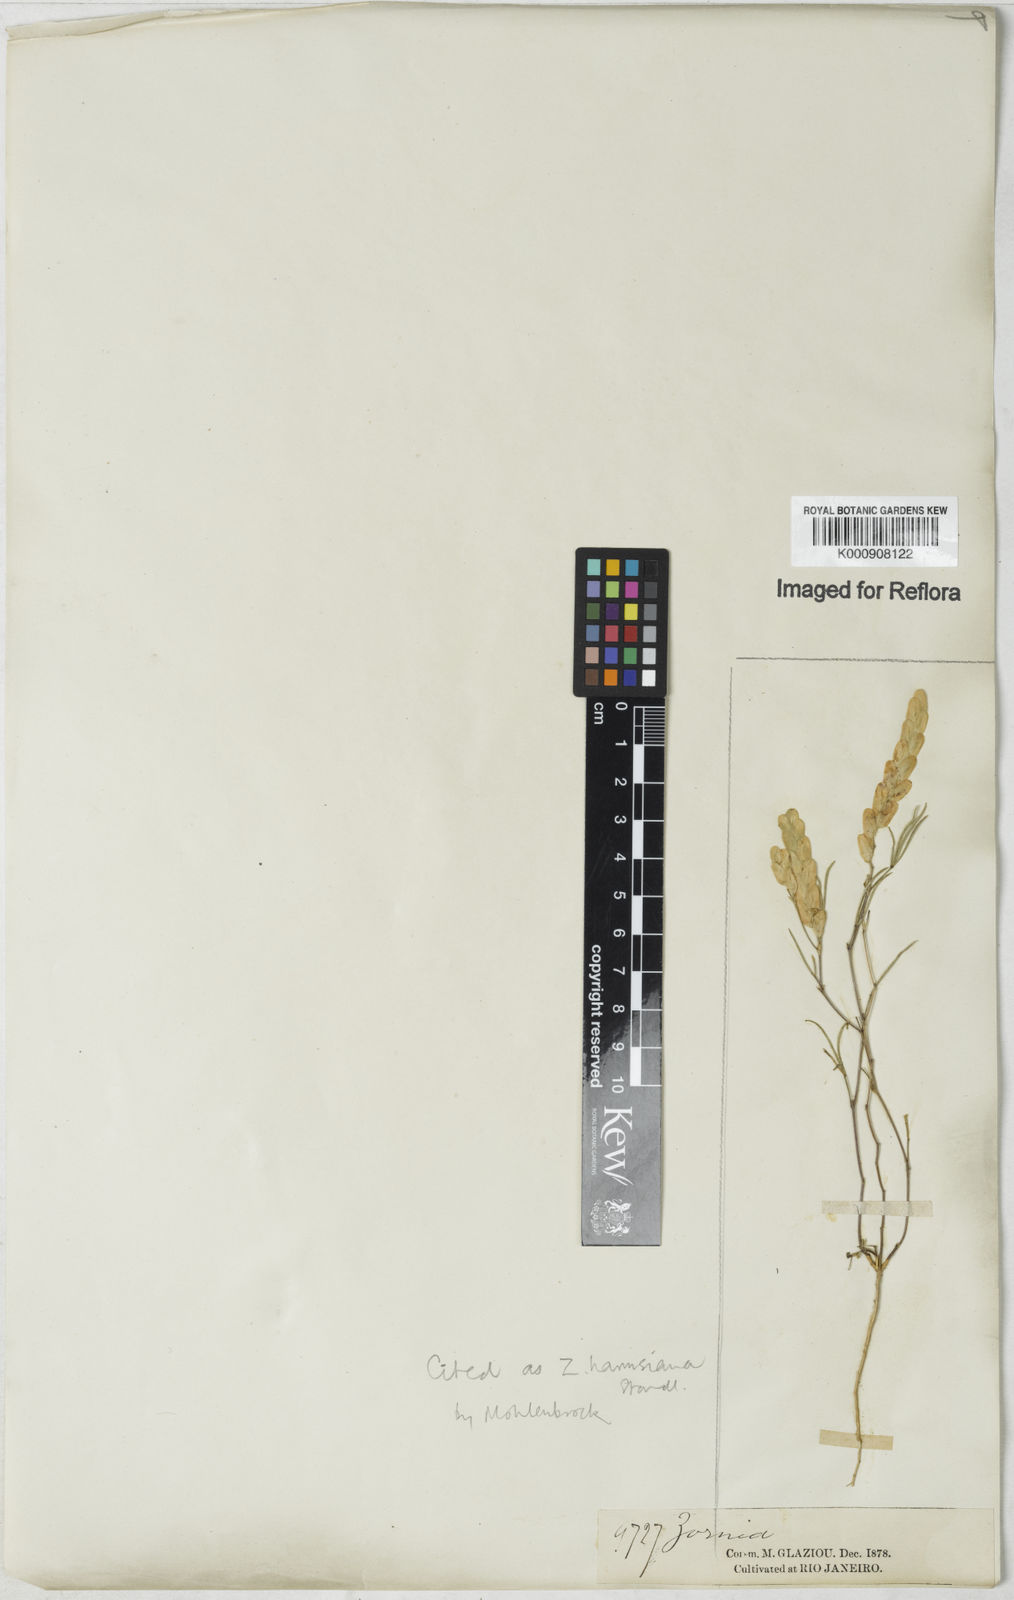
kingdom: Plantae
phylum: Tracheophyta
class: Magnoliopsida
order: Fabales
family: Fabaceae
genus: Zornia
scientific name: Zornia harmsiana
